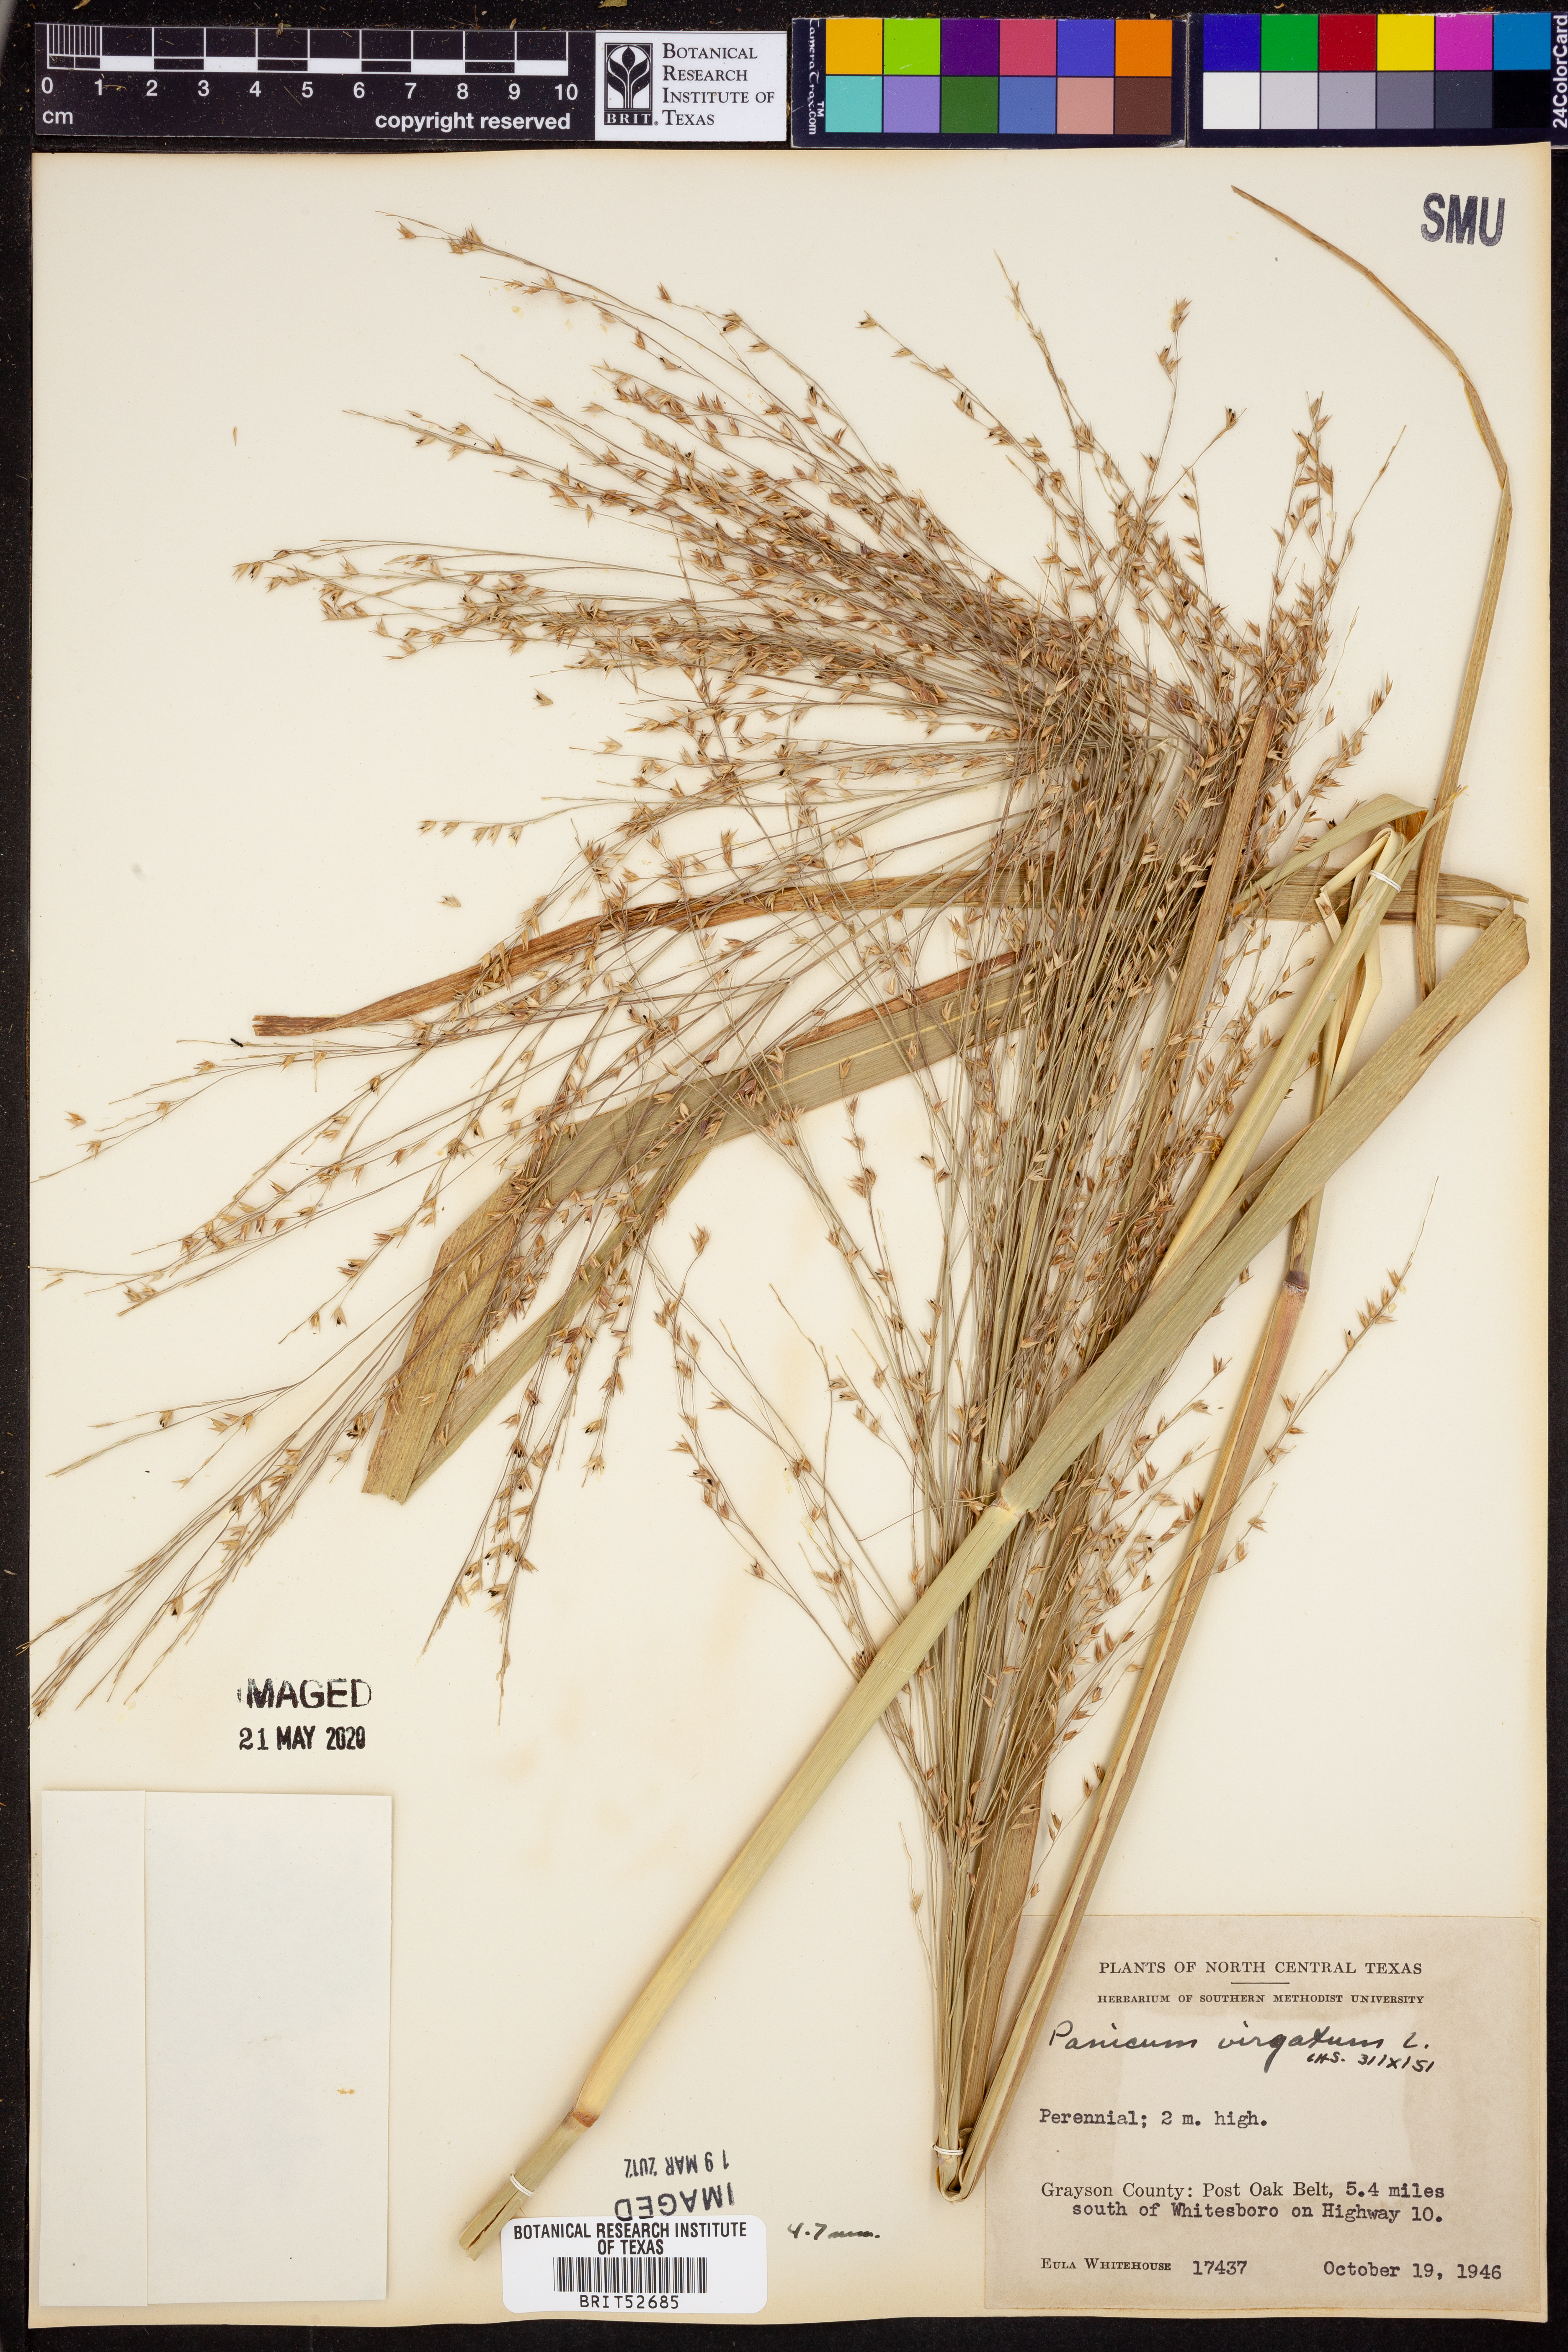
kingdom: Plantae
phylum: Tracheophyta
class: Liliopsida
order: Poales
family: Poaceae
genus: Panicum
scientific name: Panicum virgatum
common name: Switchgrass
